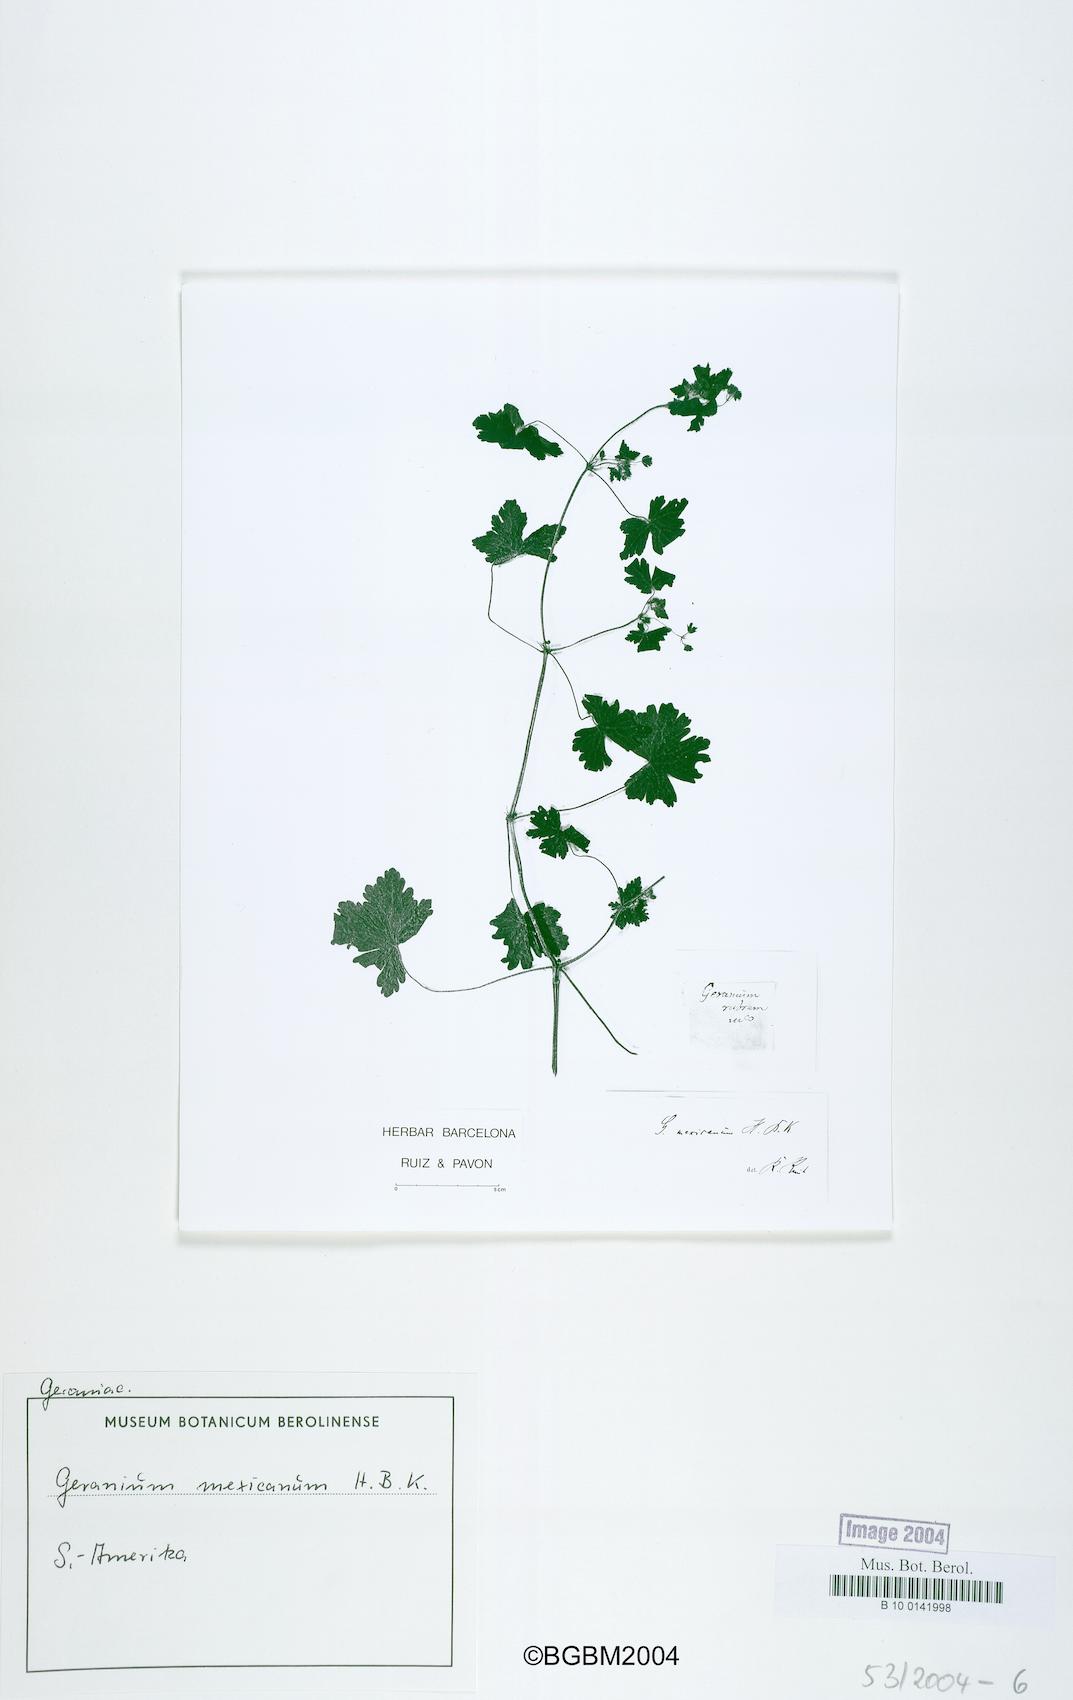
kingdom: Plantae
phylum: Tracheophyta
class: Magnoliopsida
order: Geraniales
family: Geraniaceae
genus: Geranium
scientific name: Geranium mexicanum
